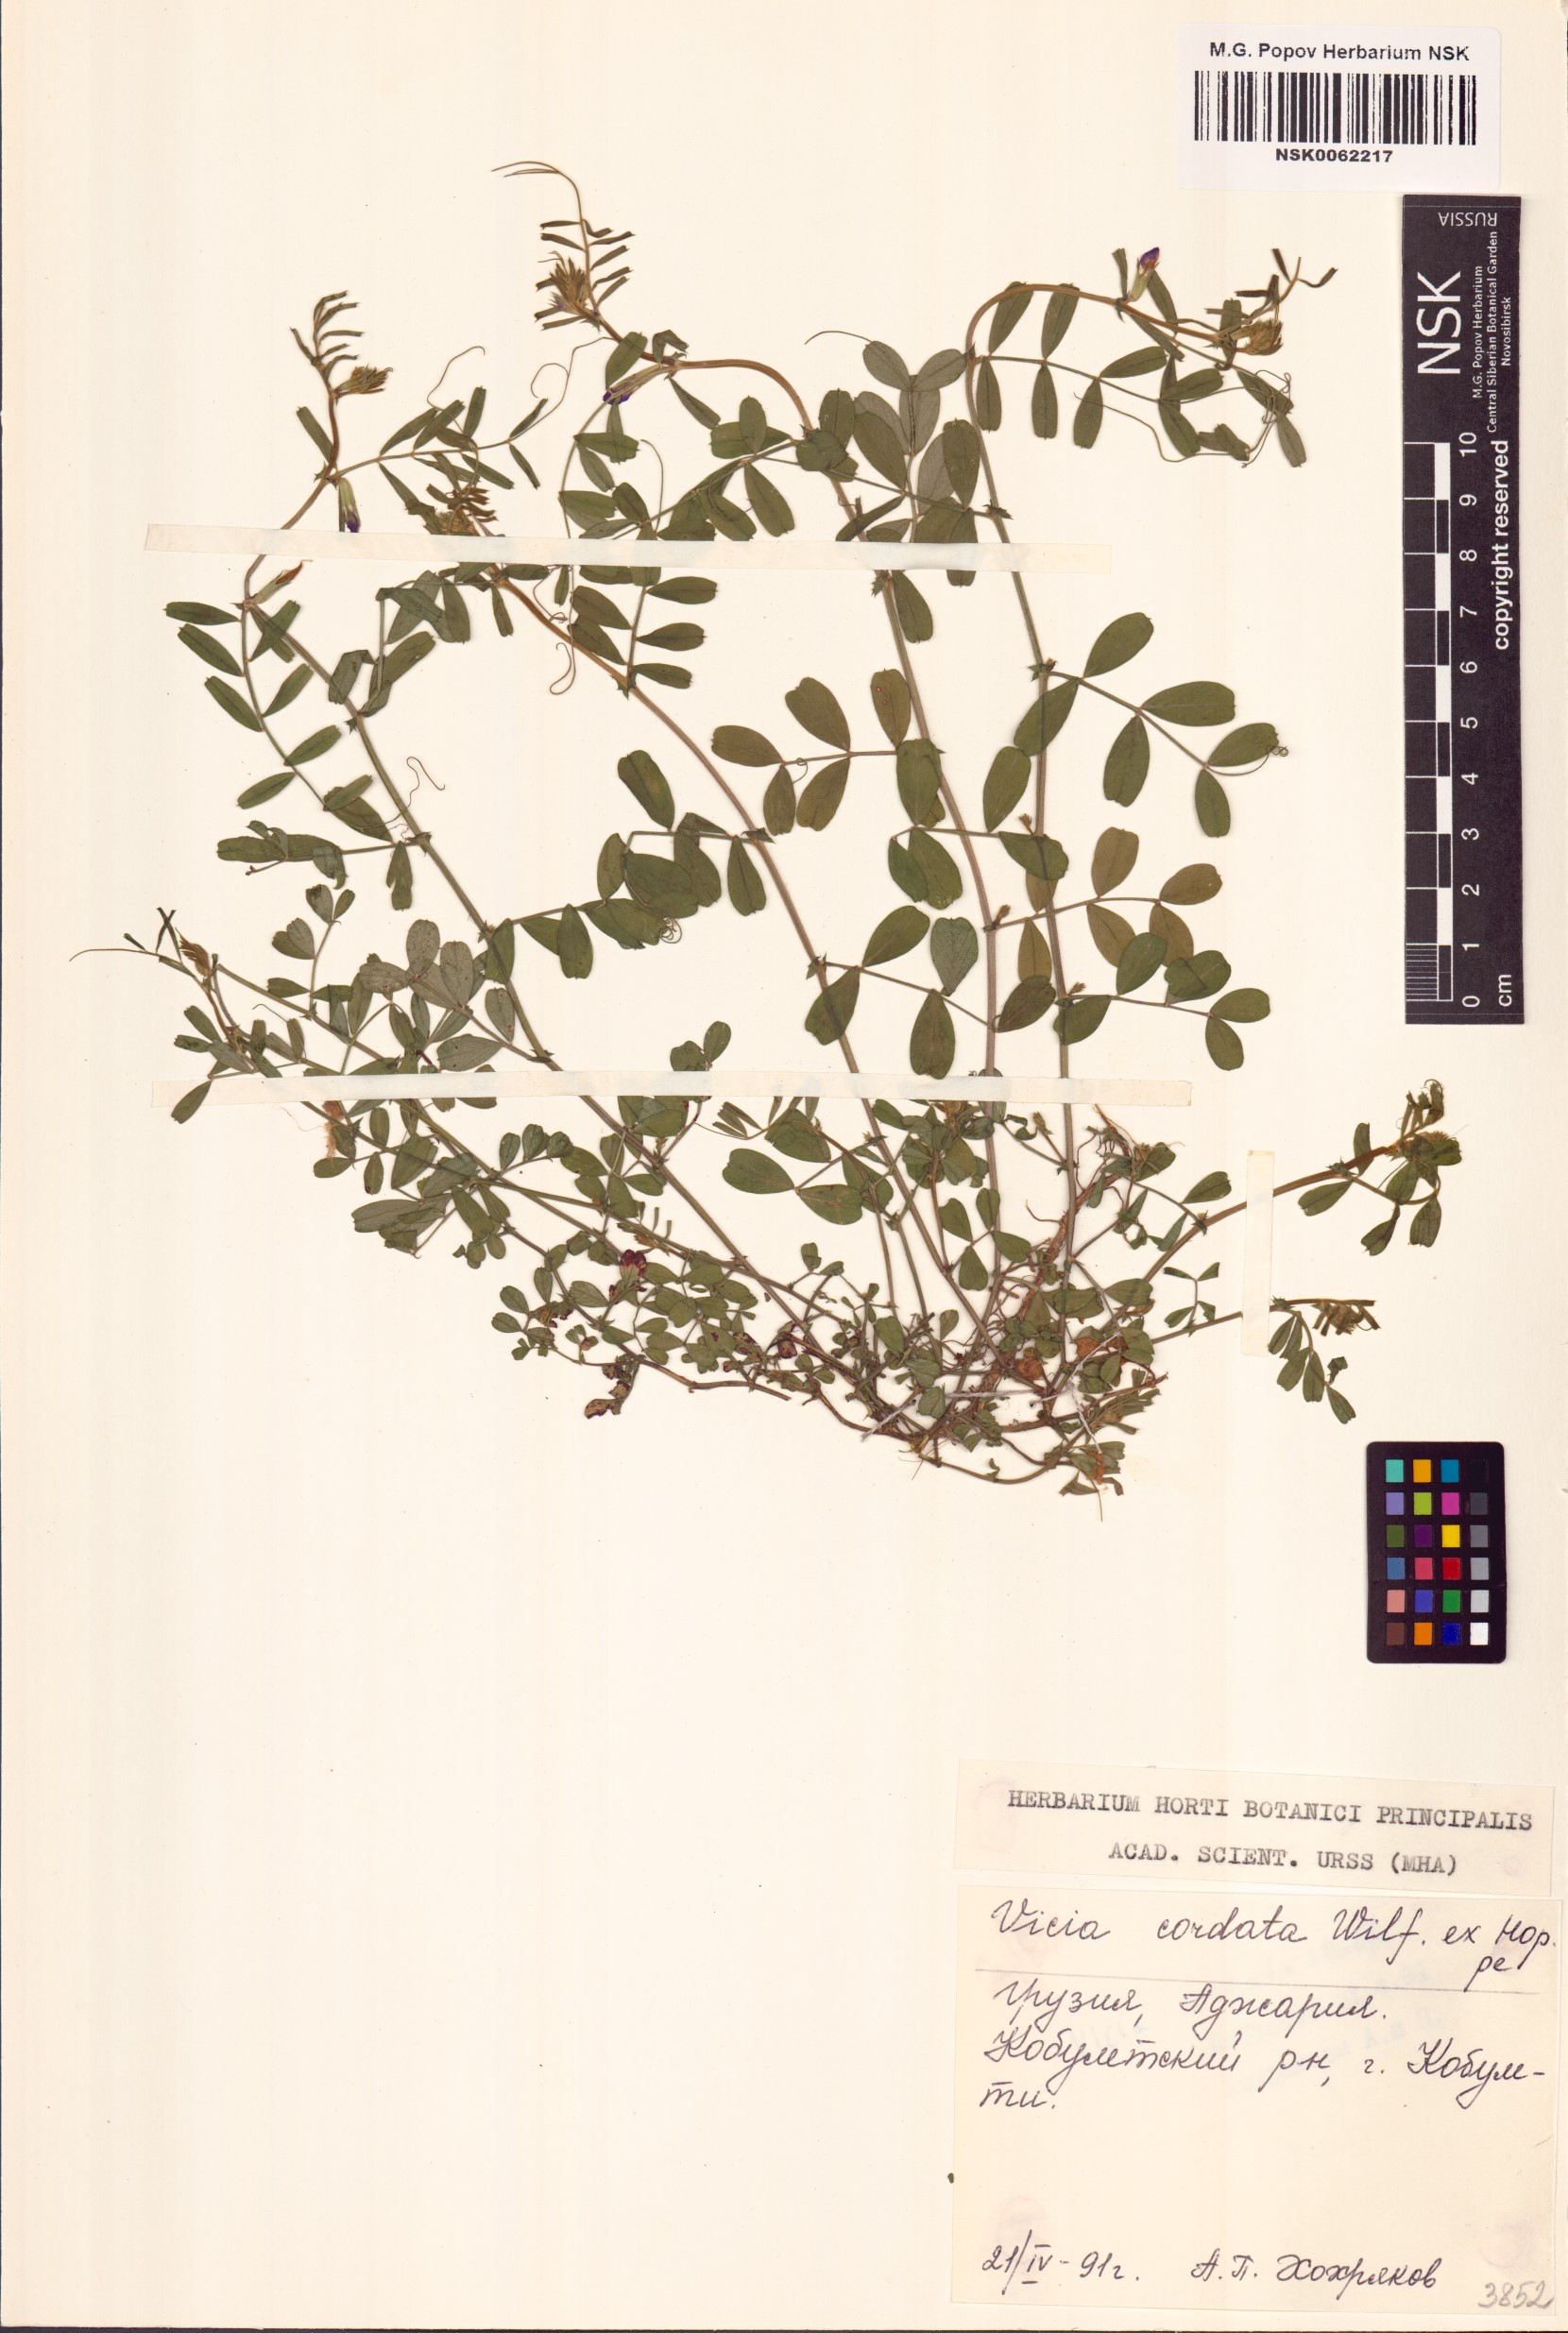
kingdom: Plantae
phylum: Tracheophyta
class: Magnoliopsida
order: Fabales
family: Fabaceae
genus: Vicia
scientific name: Vicia sativa
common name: Garden vetch
